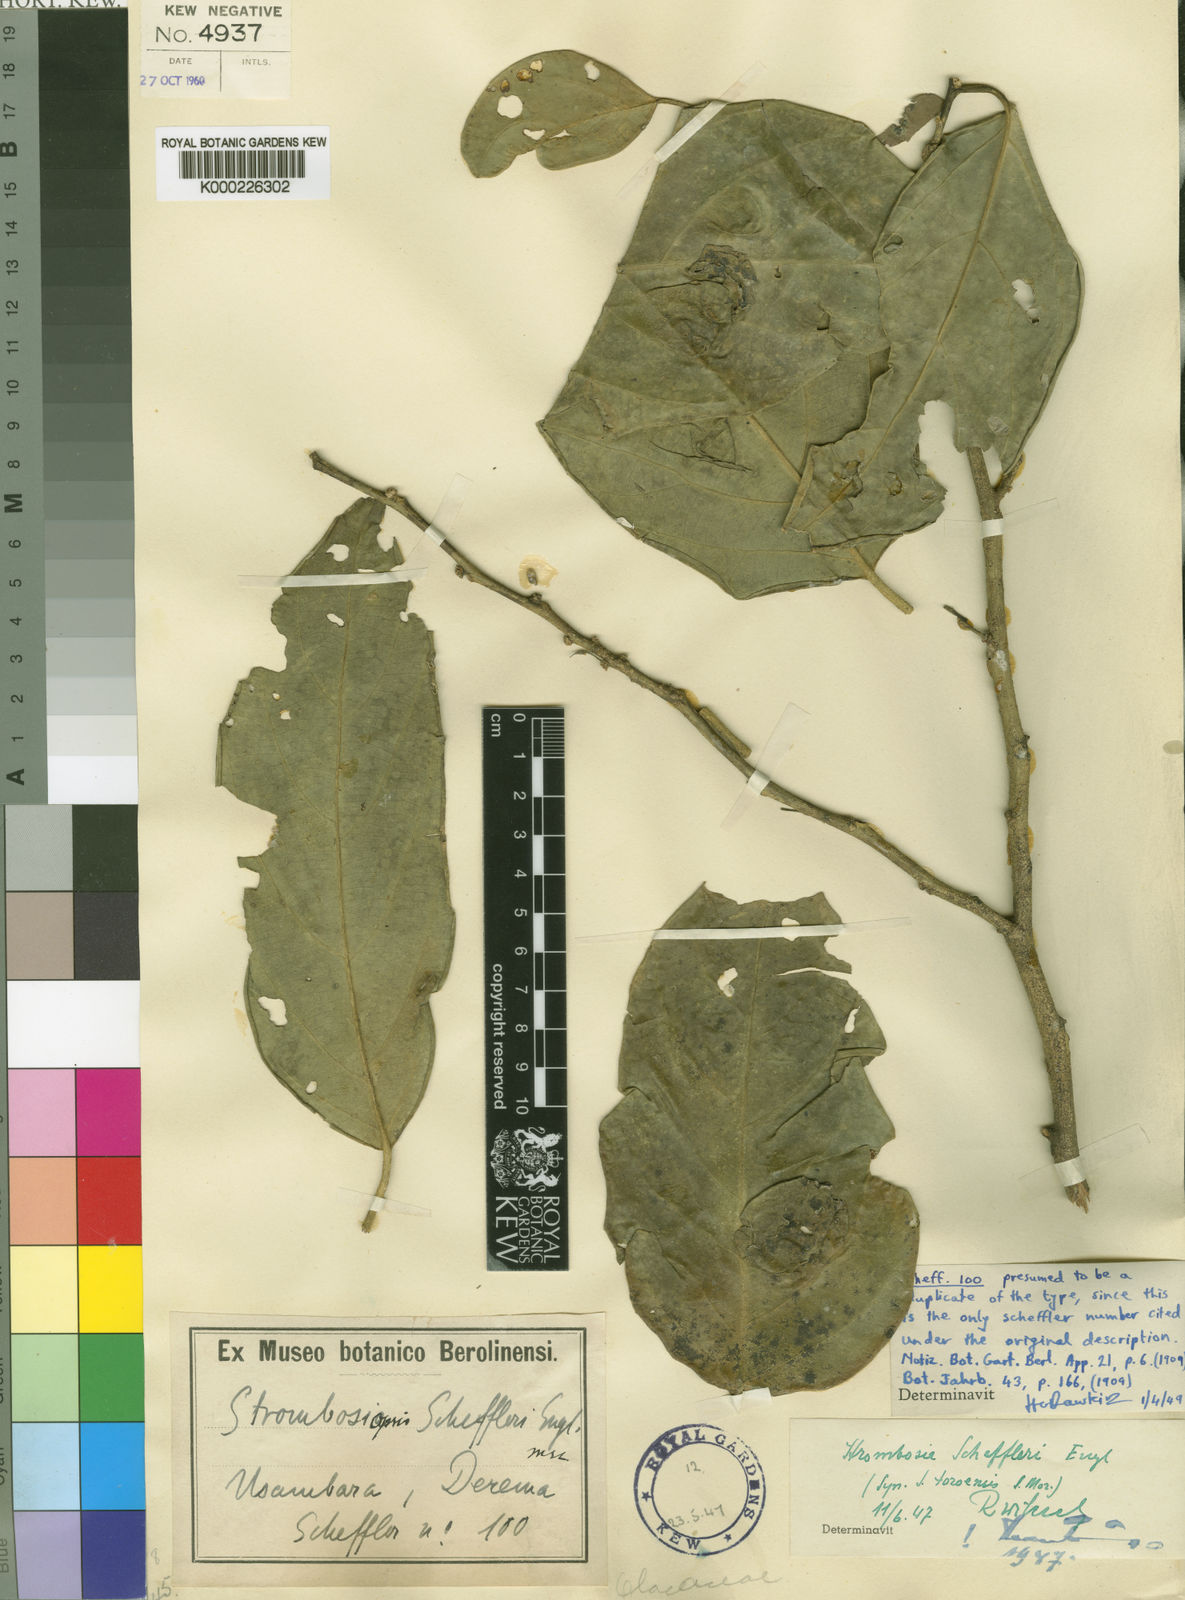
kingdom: Plantae
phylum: Tracheophyta
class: Magnoliopsida
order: Santalales
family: Strombosiaceae
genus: Strombosia
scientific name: Strombosia scheffleri
